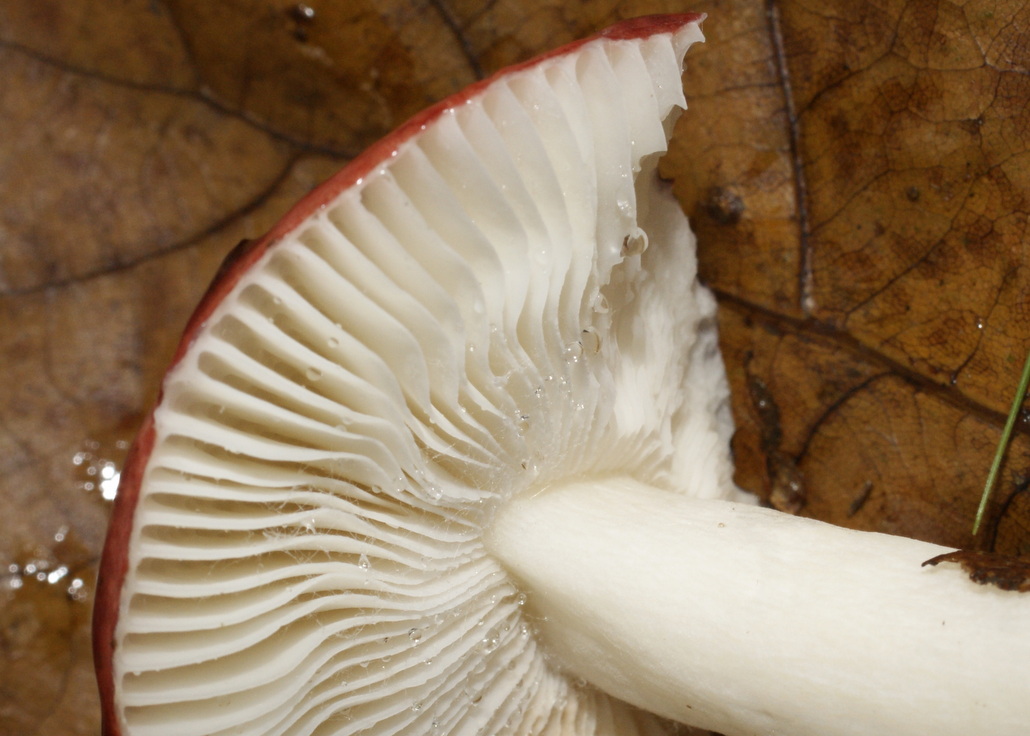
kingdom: Fungi
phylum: Basidiomycota
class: Agaricomycetes
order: Russulales
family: Russulaceae
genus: Russula
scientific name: Russula atropurpurea
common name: purpurbroget skørhat
